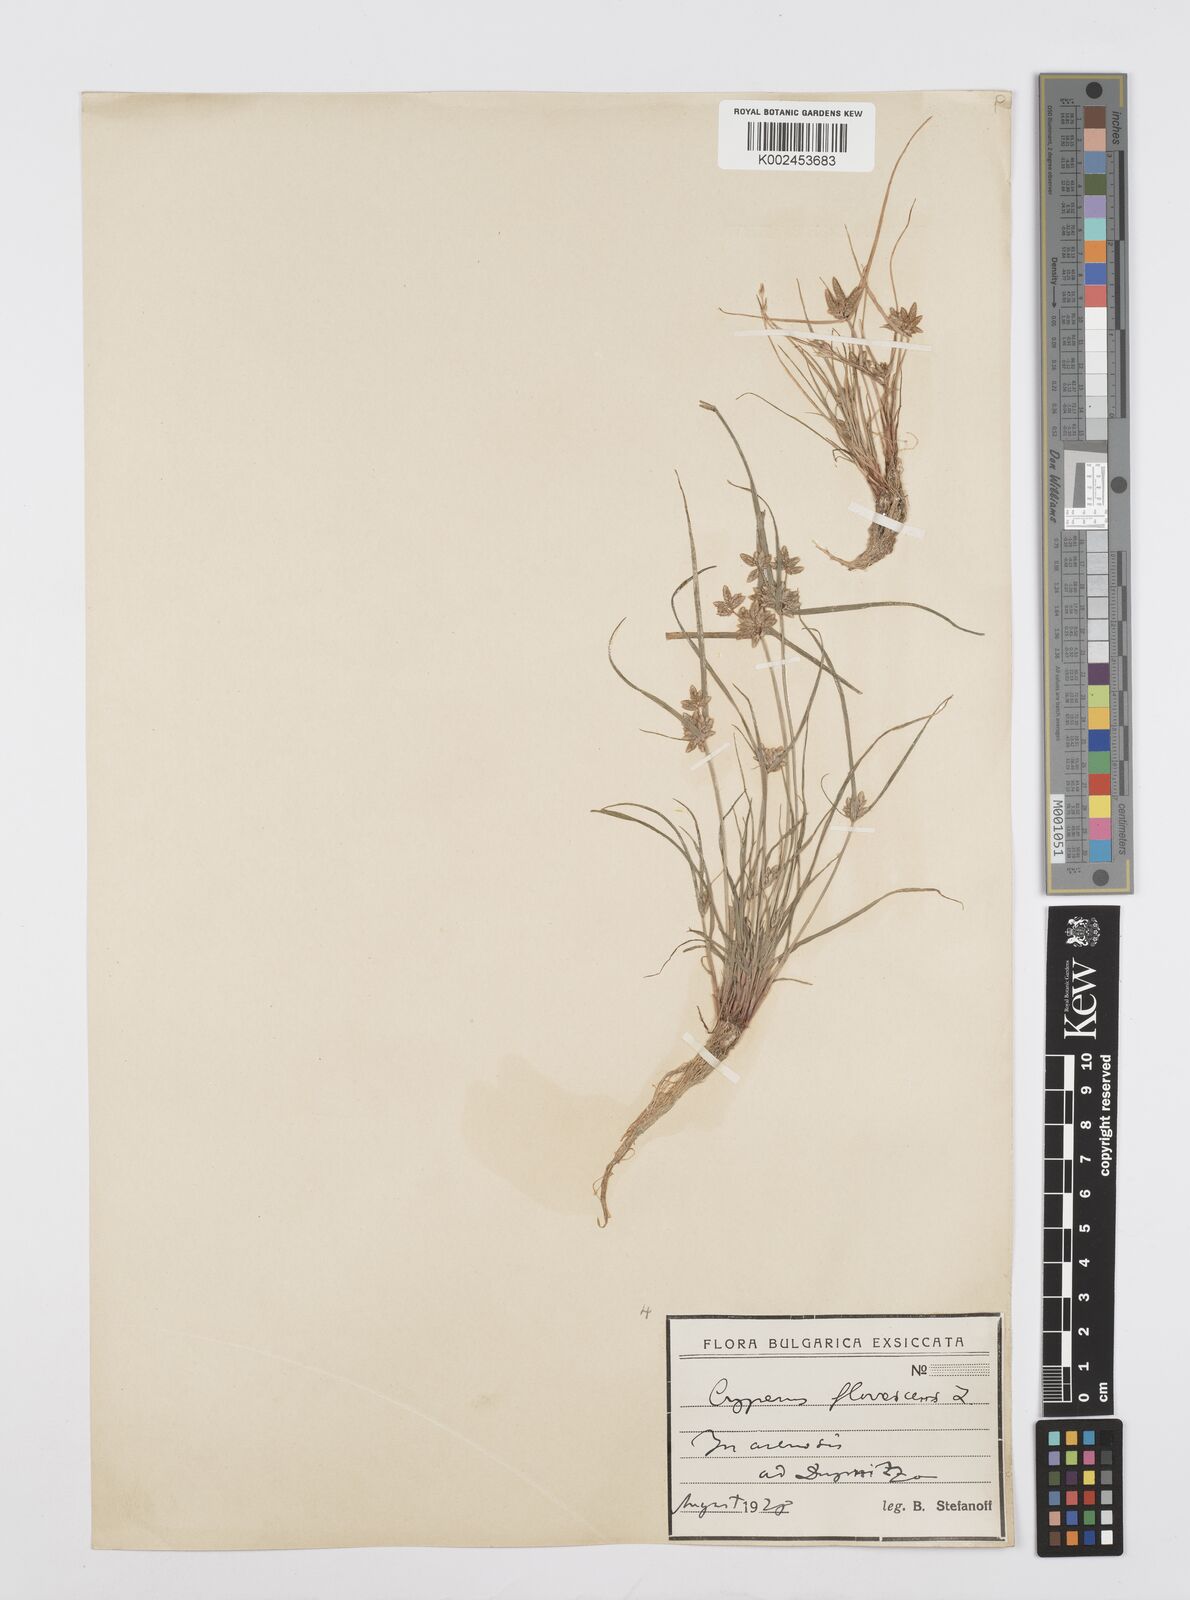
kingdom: Plantae
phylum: Tracheophyta
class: Liliopsida
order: Poales
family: Cyperaceae
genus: Cyperus
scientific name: Cyperus flavescens
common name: Yellow galingale
